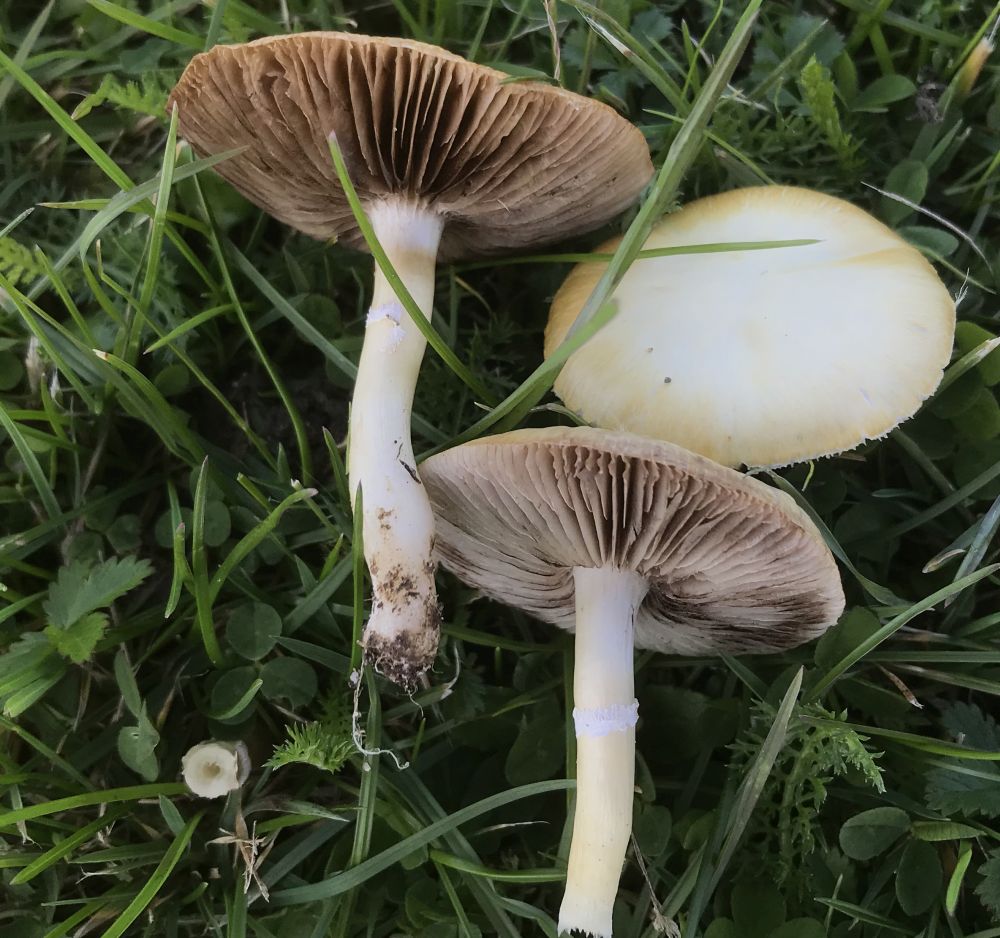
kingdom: Fungi
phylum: Basidiomycota
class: Agaricomycetes
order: Agaricales
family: Hymenogastraceae
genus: Psilocybe
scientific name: Psilocybe coronilla
